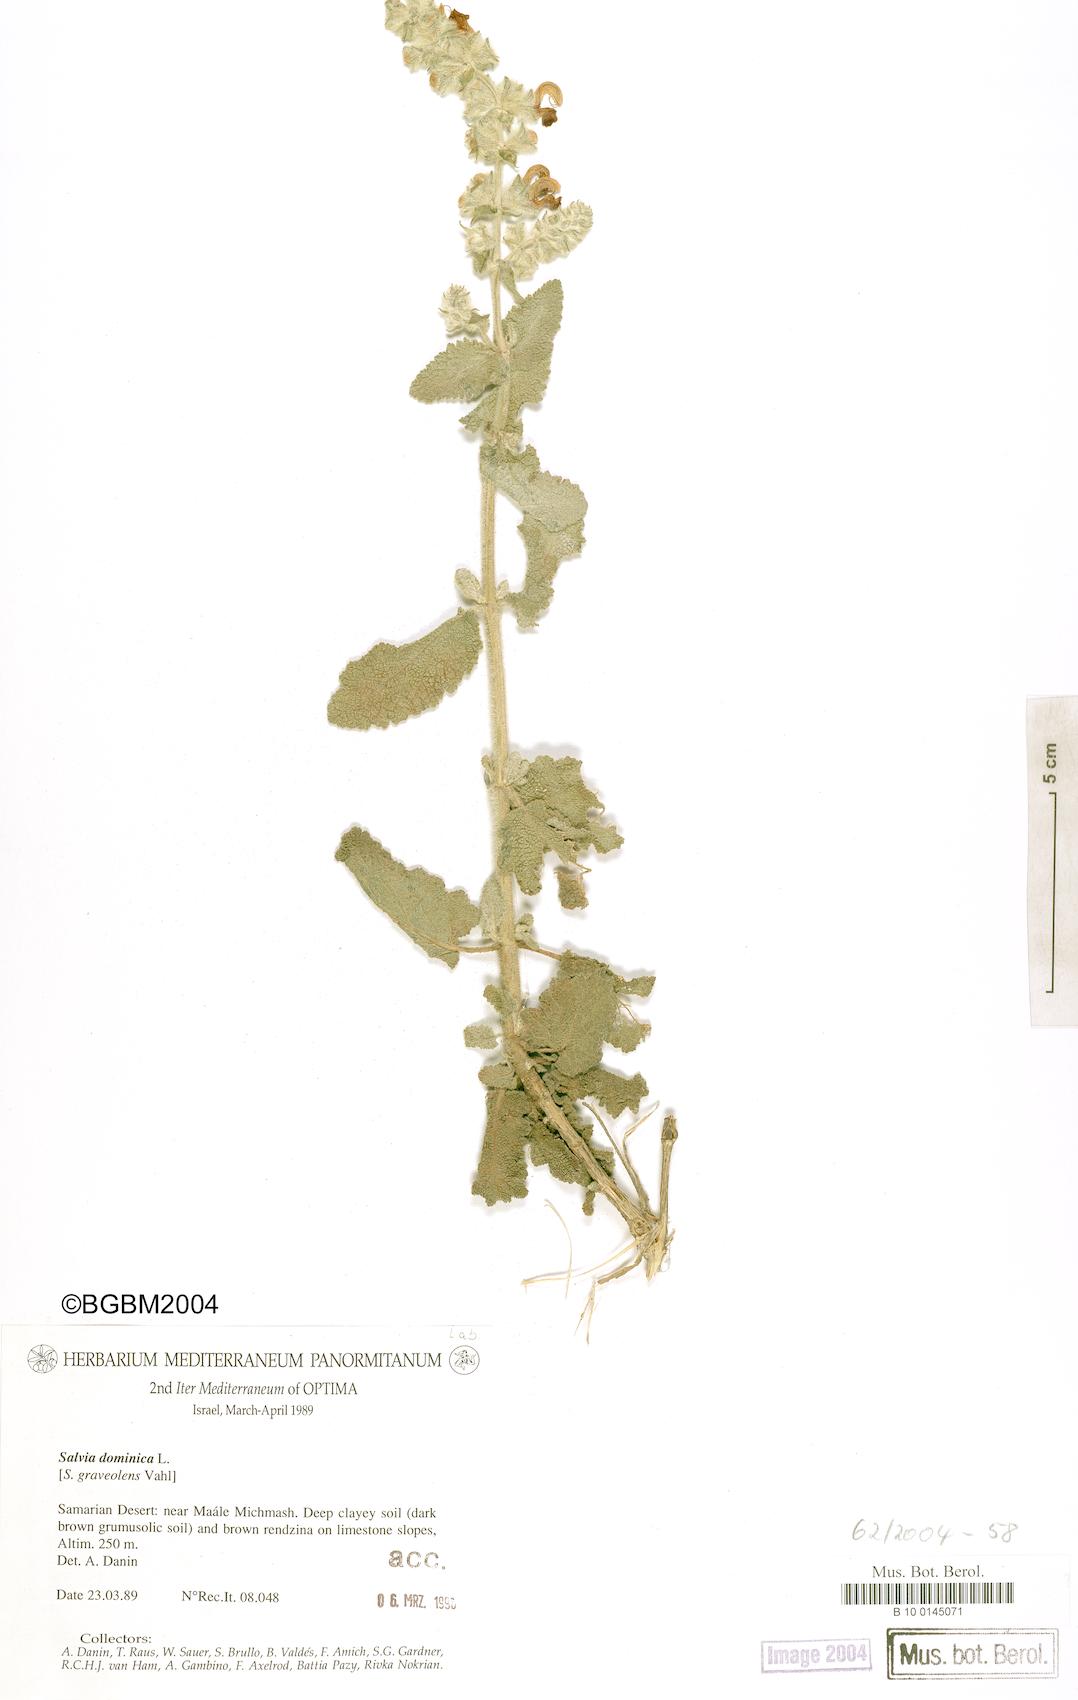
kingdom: Plantae
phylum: Tracheophyta
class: Magnoliopsida
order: Lamiales
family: Lamiaceae
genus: Salvia
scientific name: Salvia dominica
